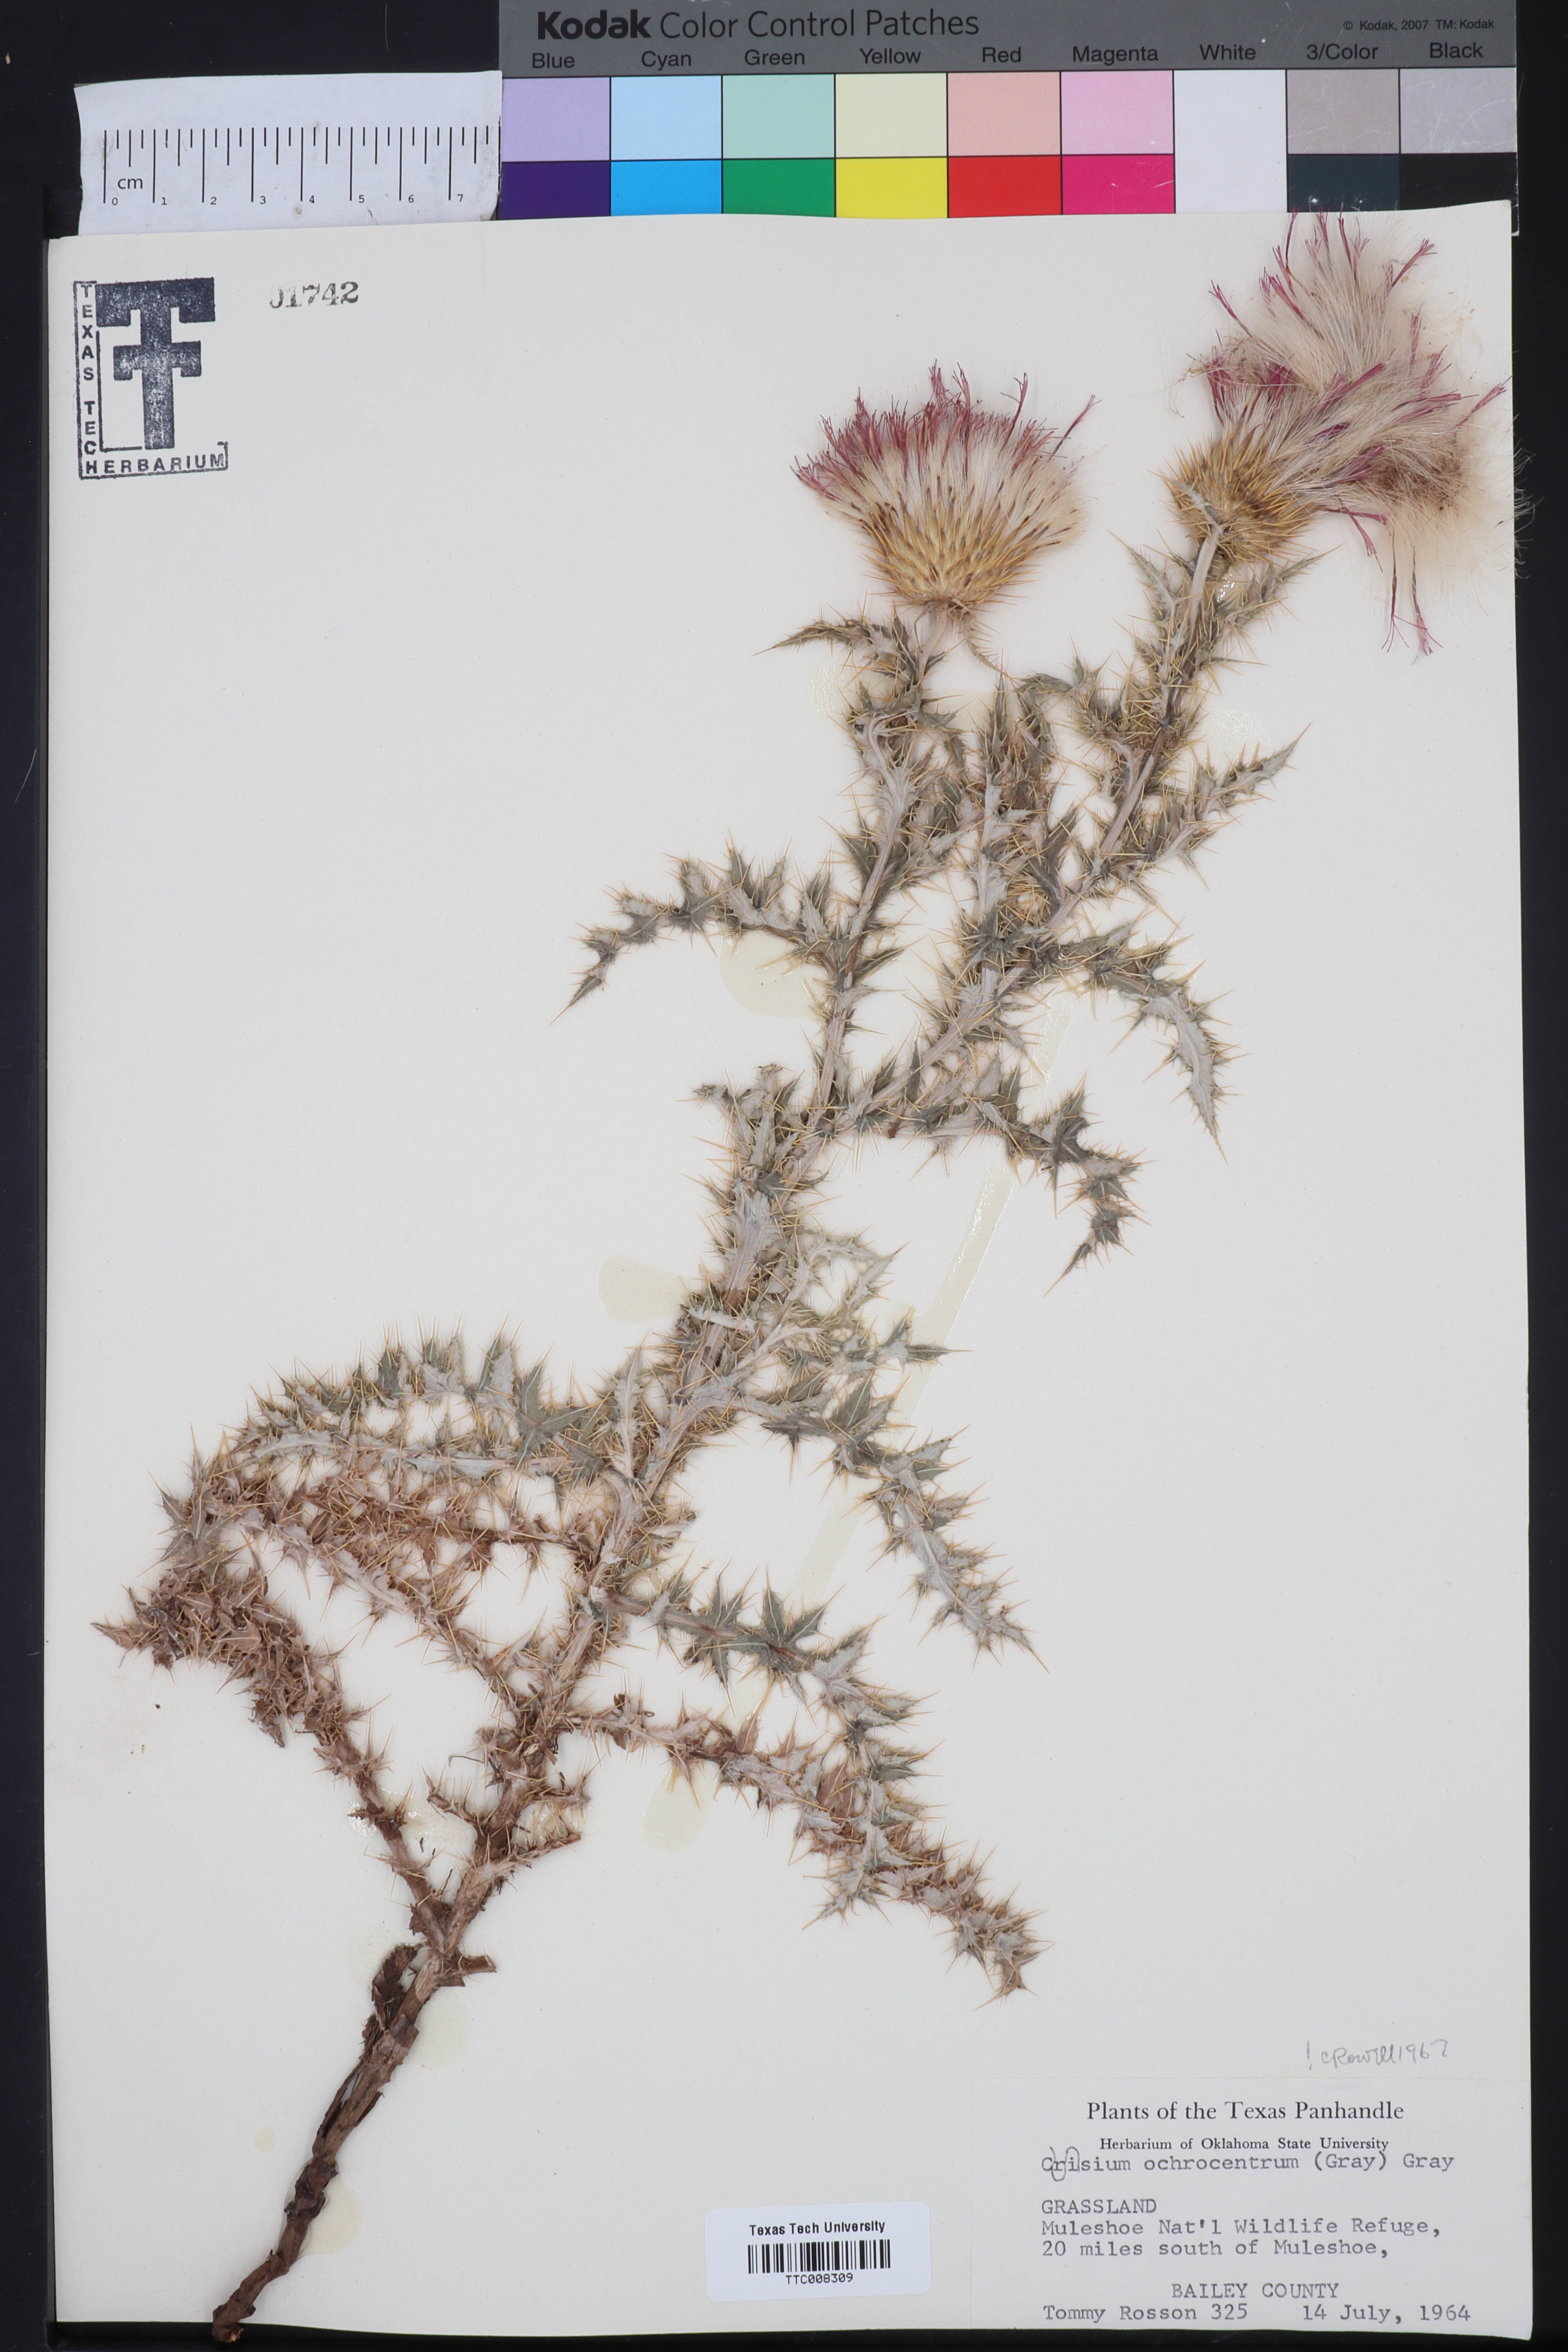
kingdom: Plantae
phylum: Tracheophyta
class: Magnoliopsida
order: Asterales
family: Asteraceae
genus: Cirsium
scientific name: Cirsium ochrocentrum
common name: Yellow-spine thistle
